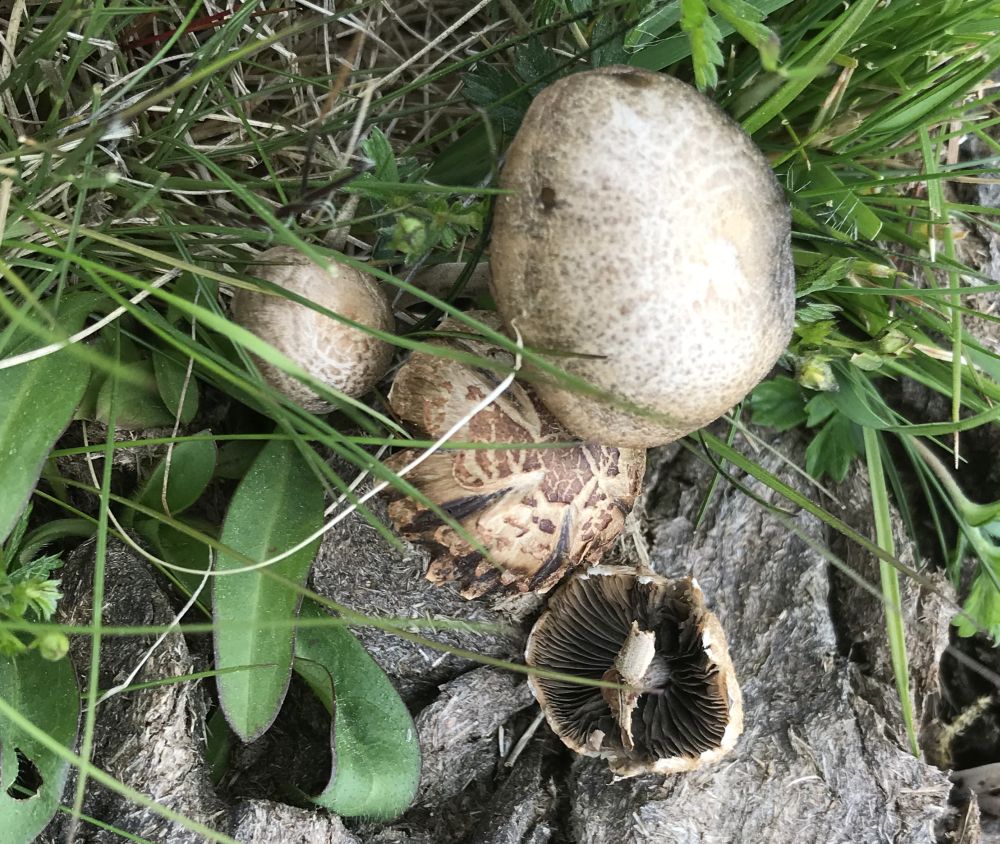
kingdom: Fungi
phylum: Basidiomycota
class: Agaricomycetes
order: Agaricales
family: Bolbitiaceae
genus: Panaeolus
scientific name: Panaeolus
